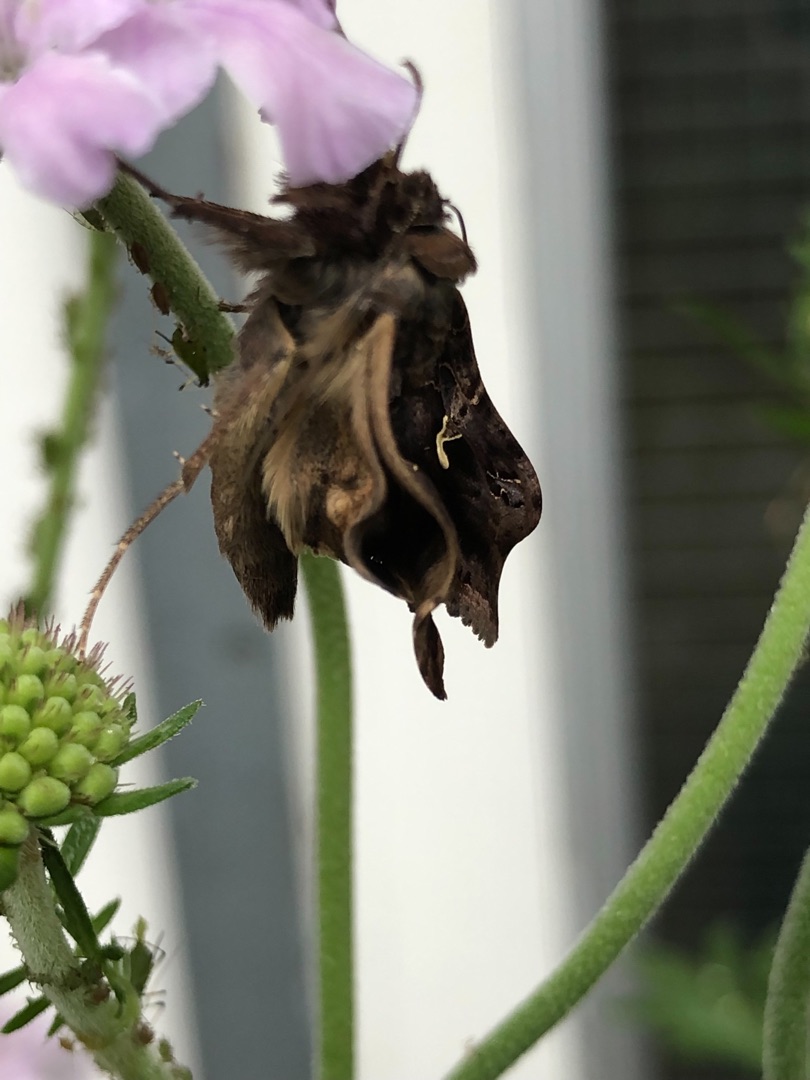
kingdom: Animalia
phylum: Arthropoda
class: Insecta
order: Lepidoptera
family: Noctuidae
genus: Autographa
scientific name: Autographa gamma
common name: Gammaugle
